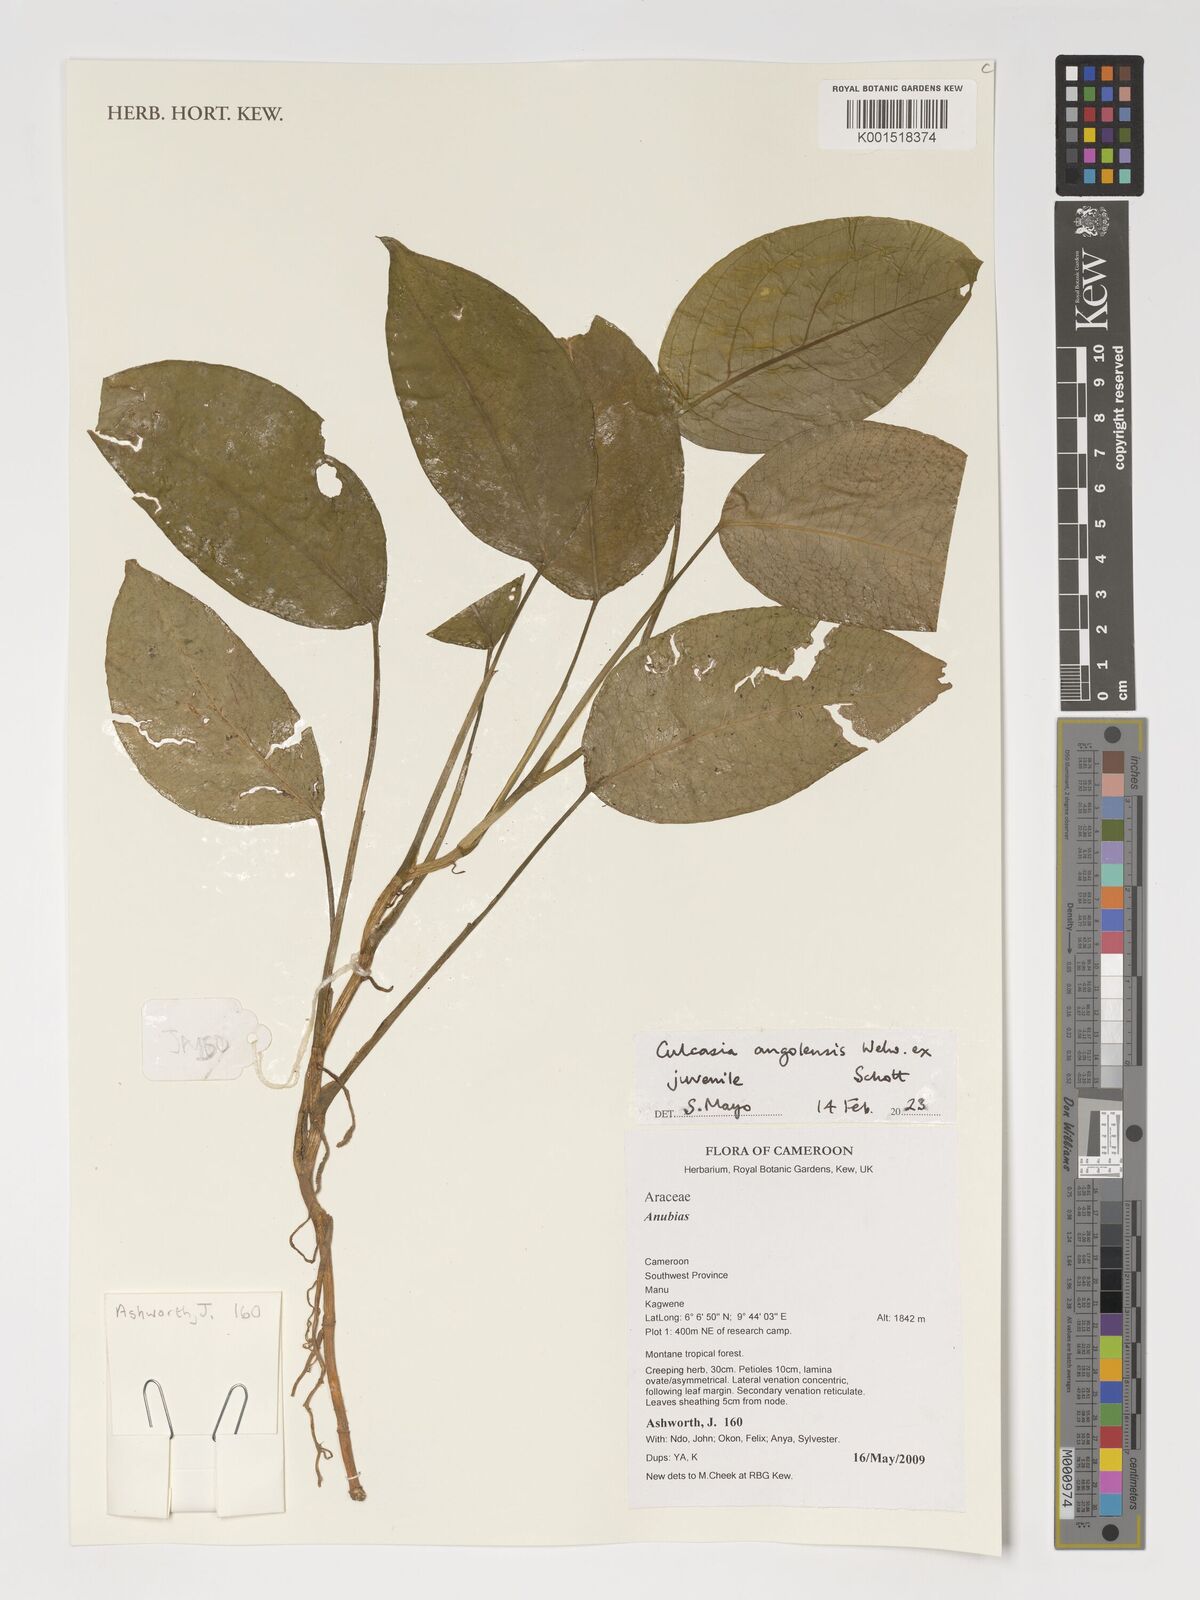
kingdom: Plantae
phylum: Tracheophyta
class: Liliopsida
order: Alismatales
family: Araceae
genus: Culcasia
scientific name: Culcasia angolensis
